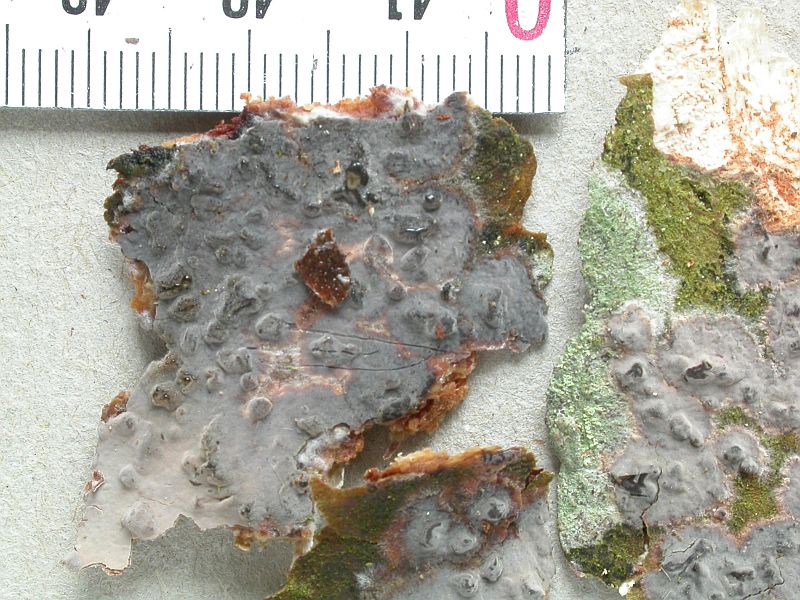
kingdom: Fungi
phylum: Basidiomycota
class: Agaricomycetes
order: Russulales
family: Peniophoraceae
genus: Peniophora
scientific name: Peniophora lycii
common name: grynet voksskind
